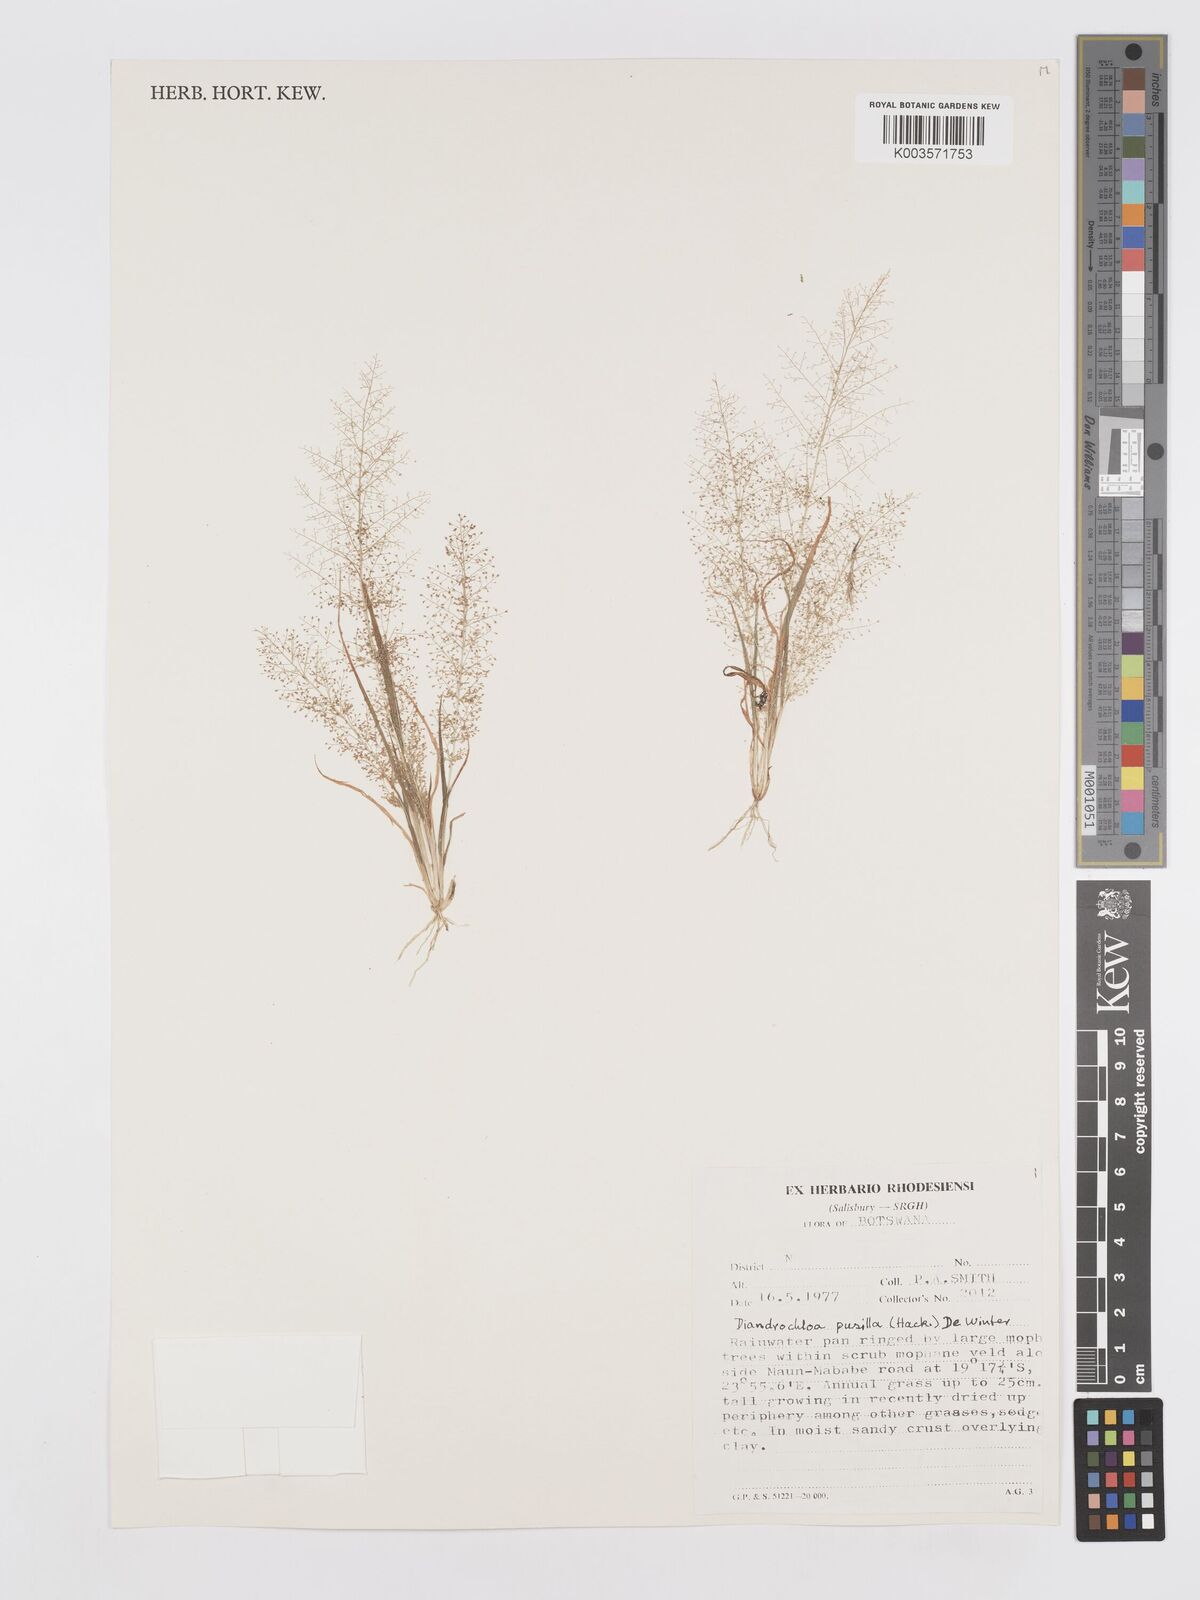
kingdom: Plantae
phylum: Tracheophyta
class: Liliopsida
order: Poales
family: Poaceae
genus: Eragrostis
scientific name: Eragrostis pusilla
